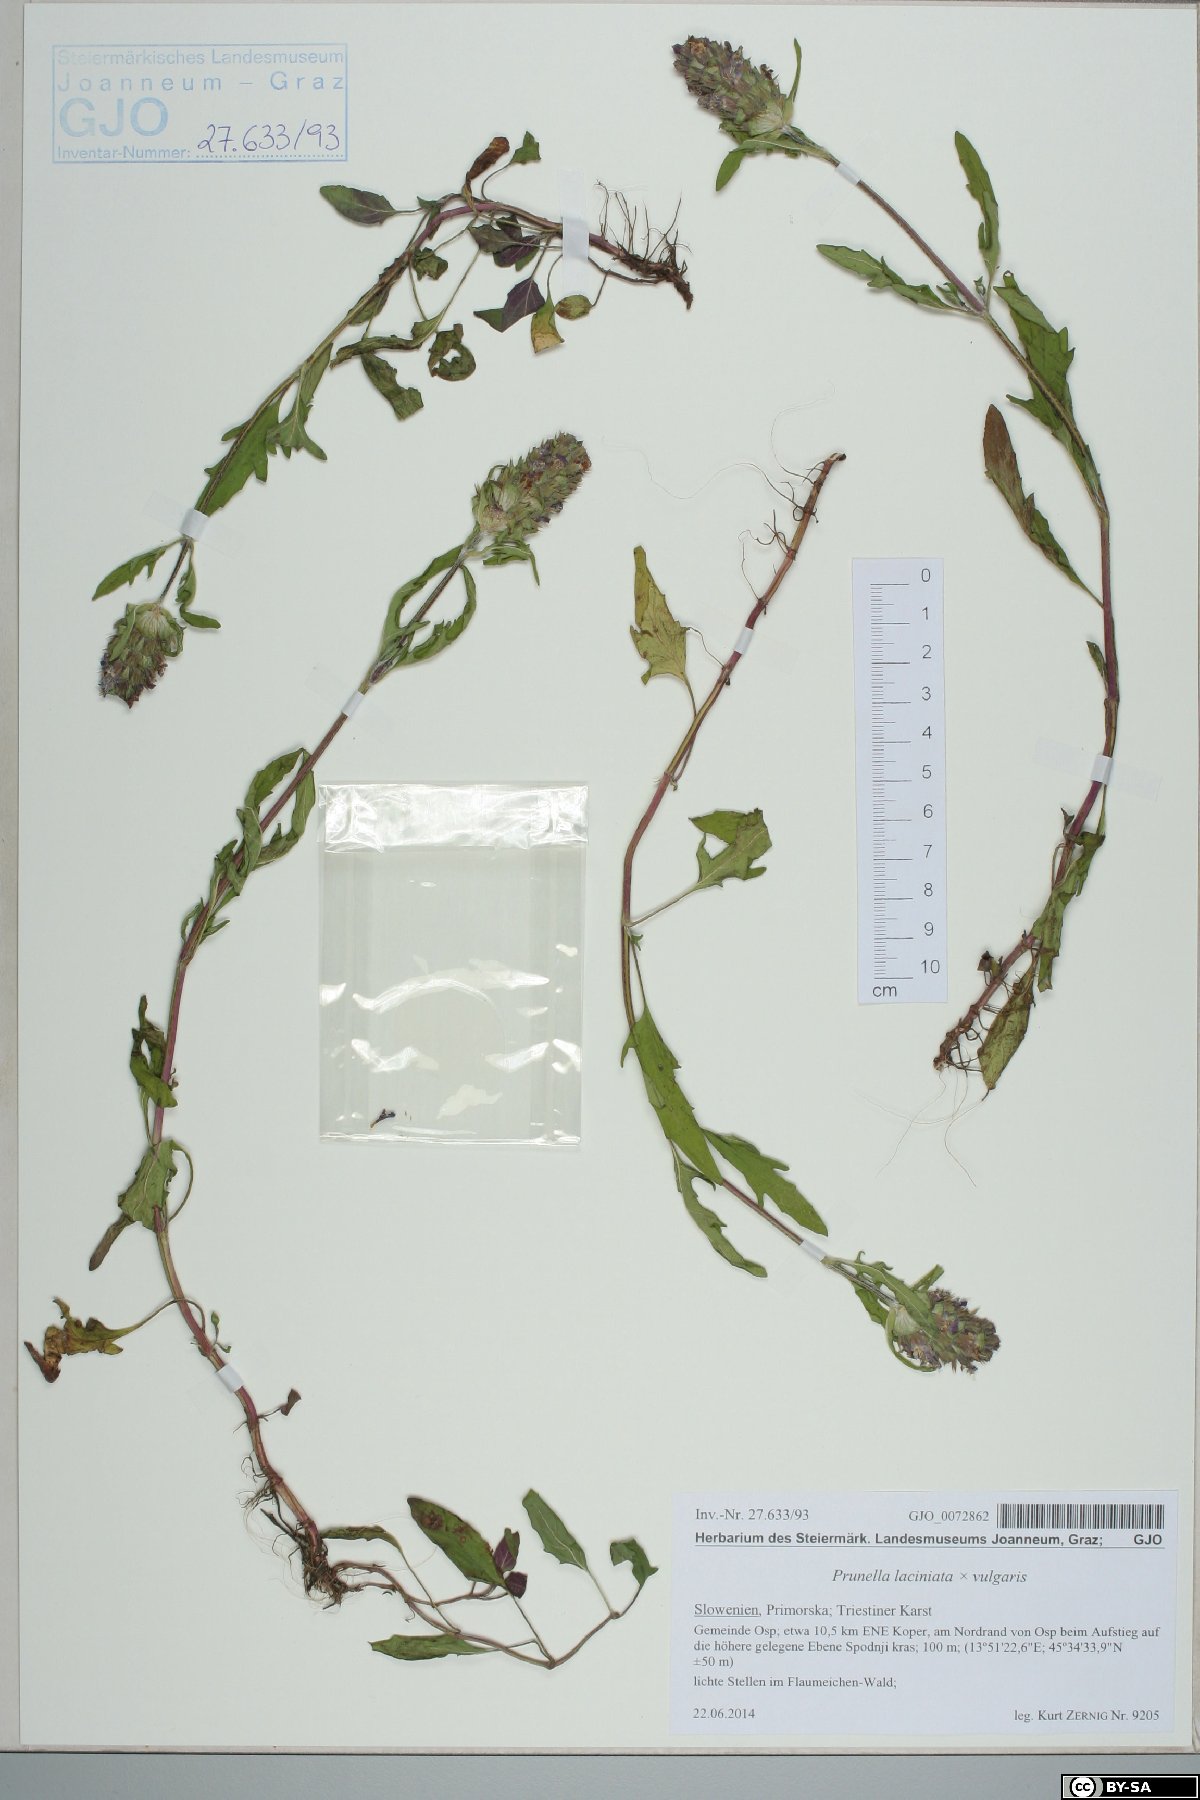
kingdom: Plantae
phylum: Tracheophyta
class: Magnoliopsida
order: Lamiales
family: Lamiaceae
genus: Prunella
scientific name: Prunella laciniata
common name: Cut-leaved selfheal
